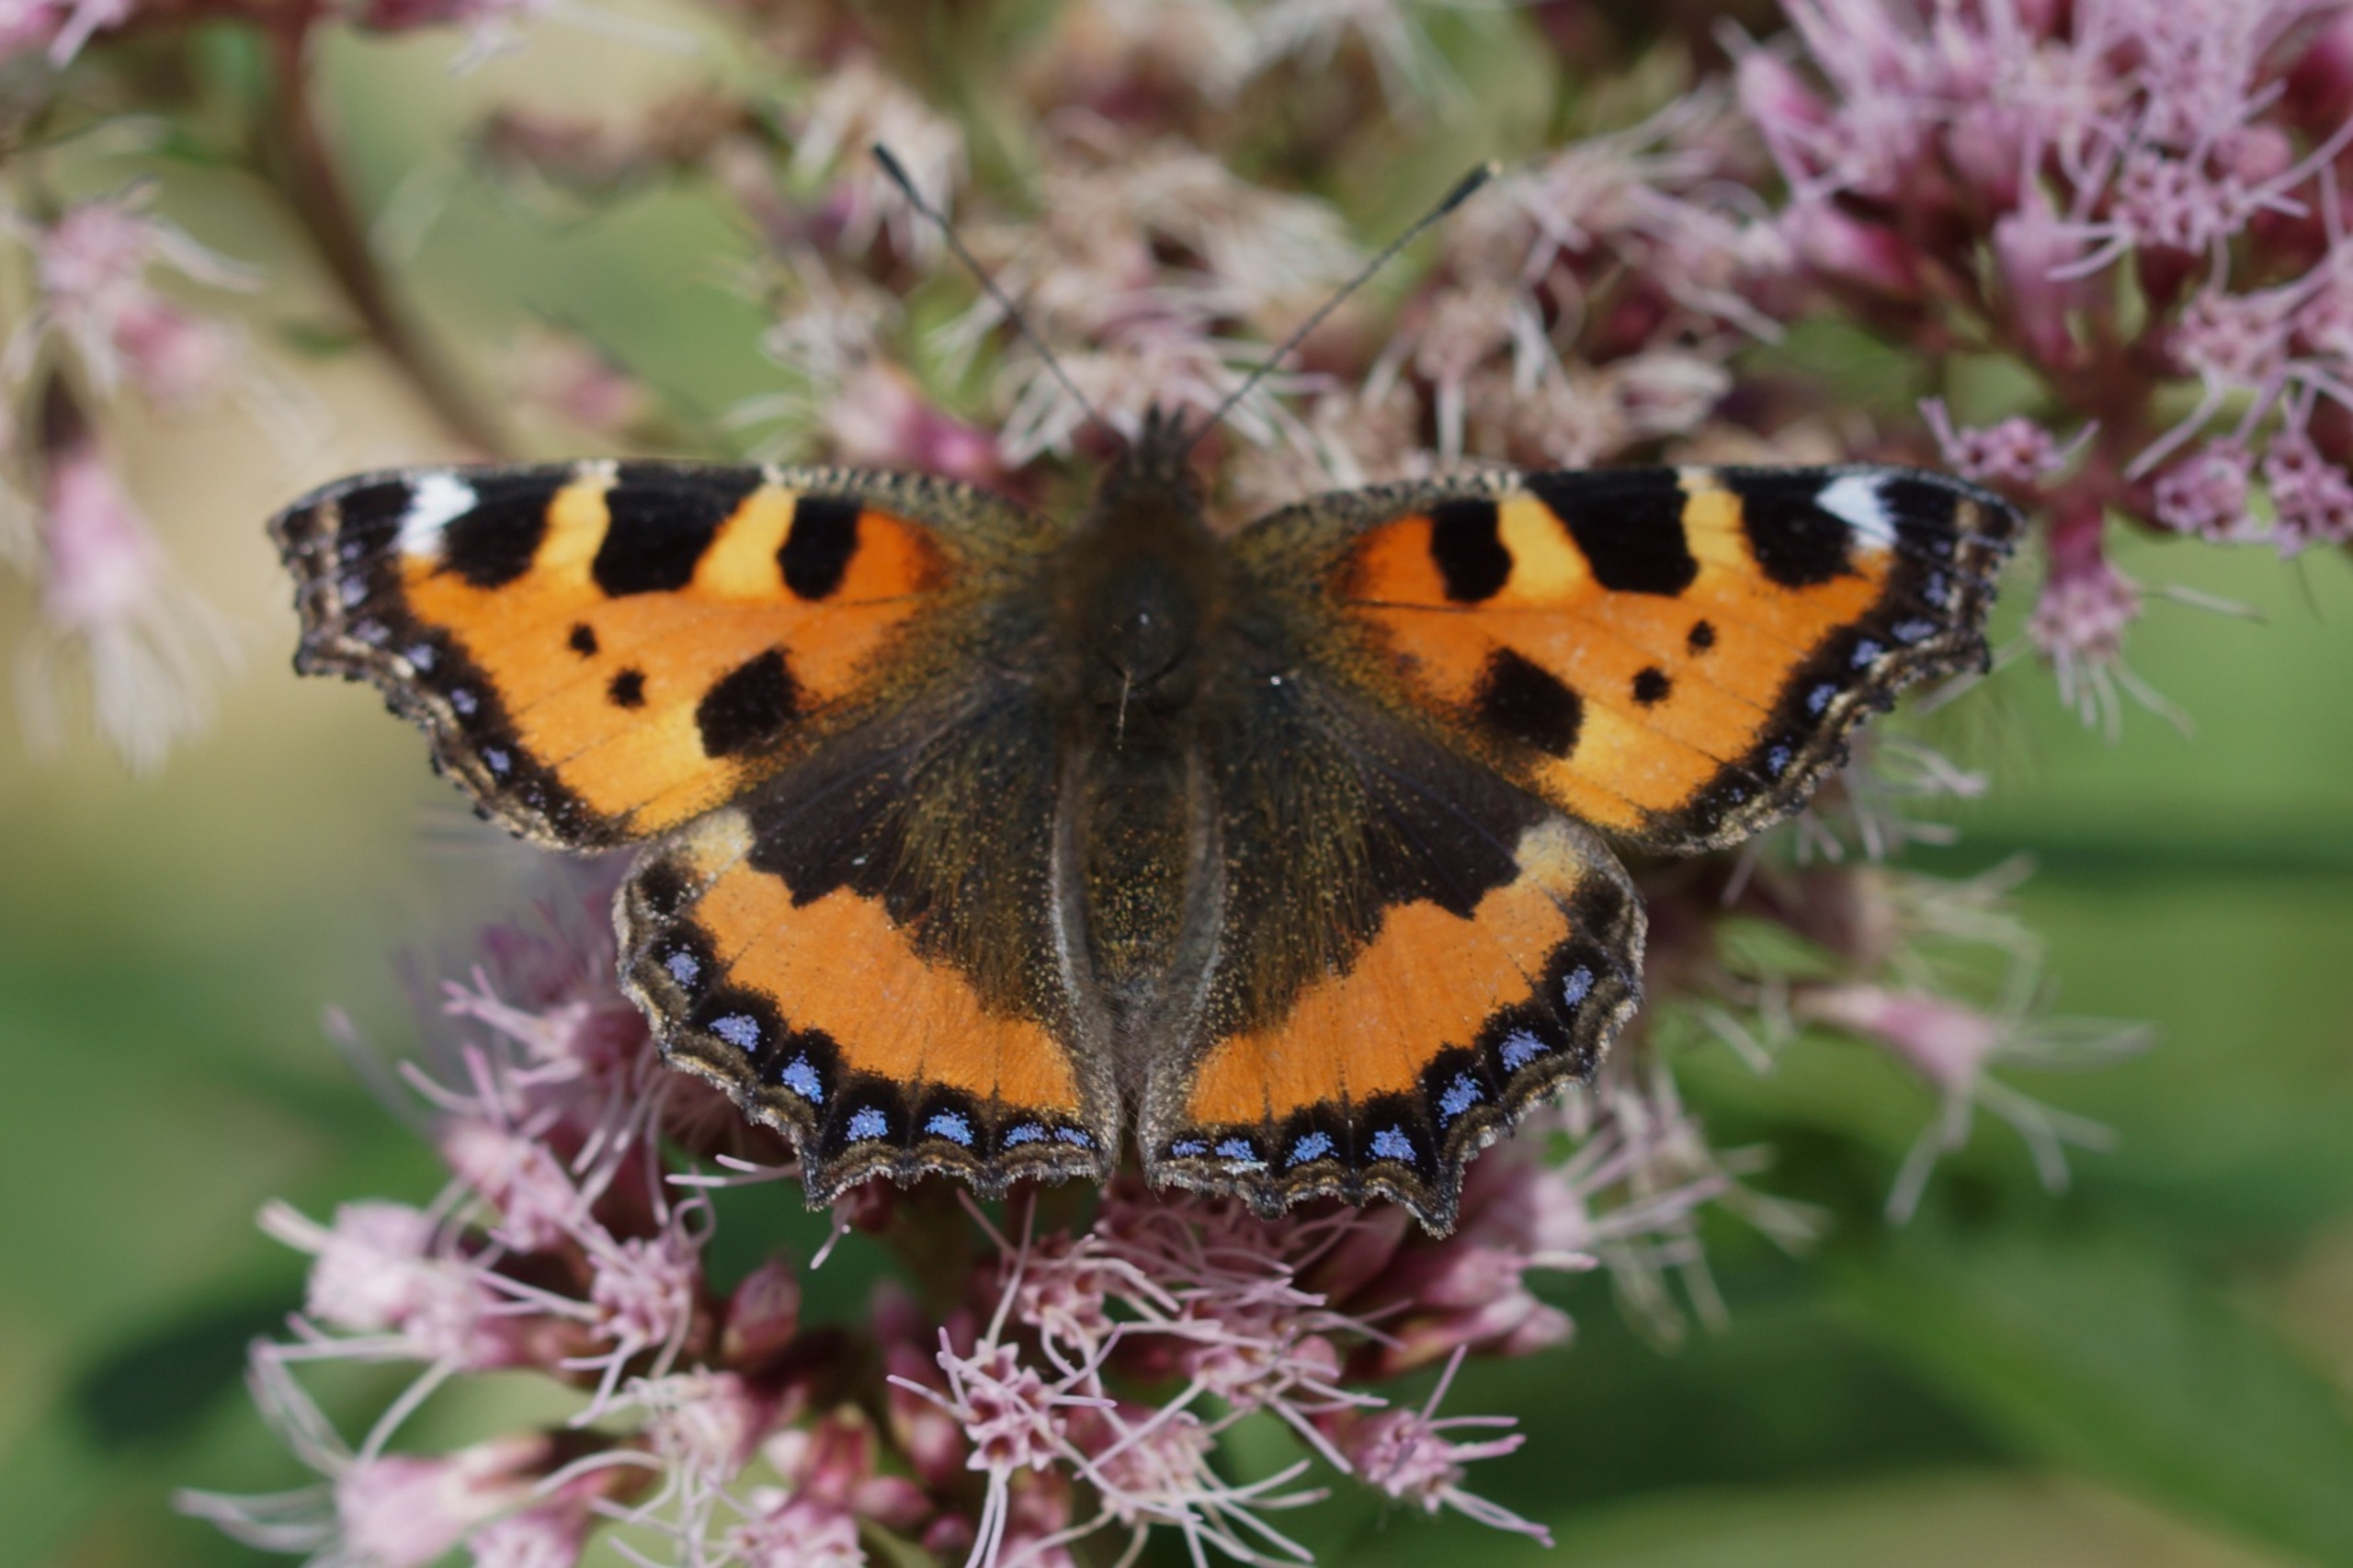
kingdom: Animalia
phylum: Arthropoda
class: Insecta
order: Lepidoptera
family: Nymphalidae
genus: Aglais
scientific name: Aglais urticae
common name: Nældens takvinge
